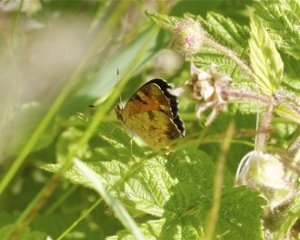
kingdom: Animalia
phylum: Arthropoda
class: Insecta
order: Lepidoptera
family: Nymphalidae
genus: Phyciodes
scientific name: Phyciodes tharos
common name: Northern Crescent
